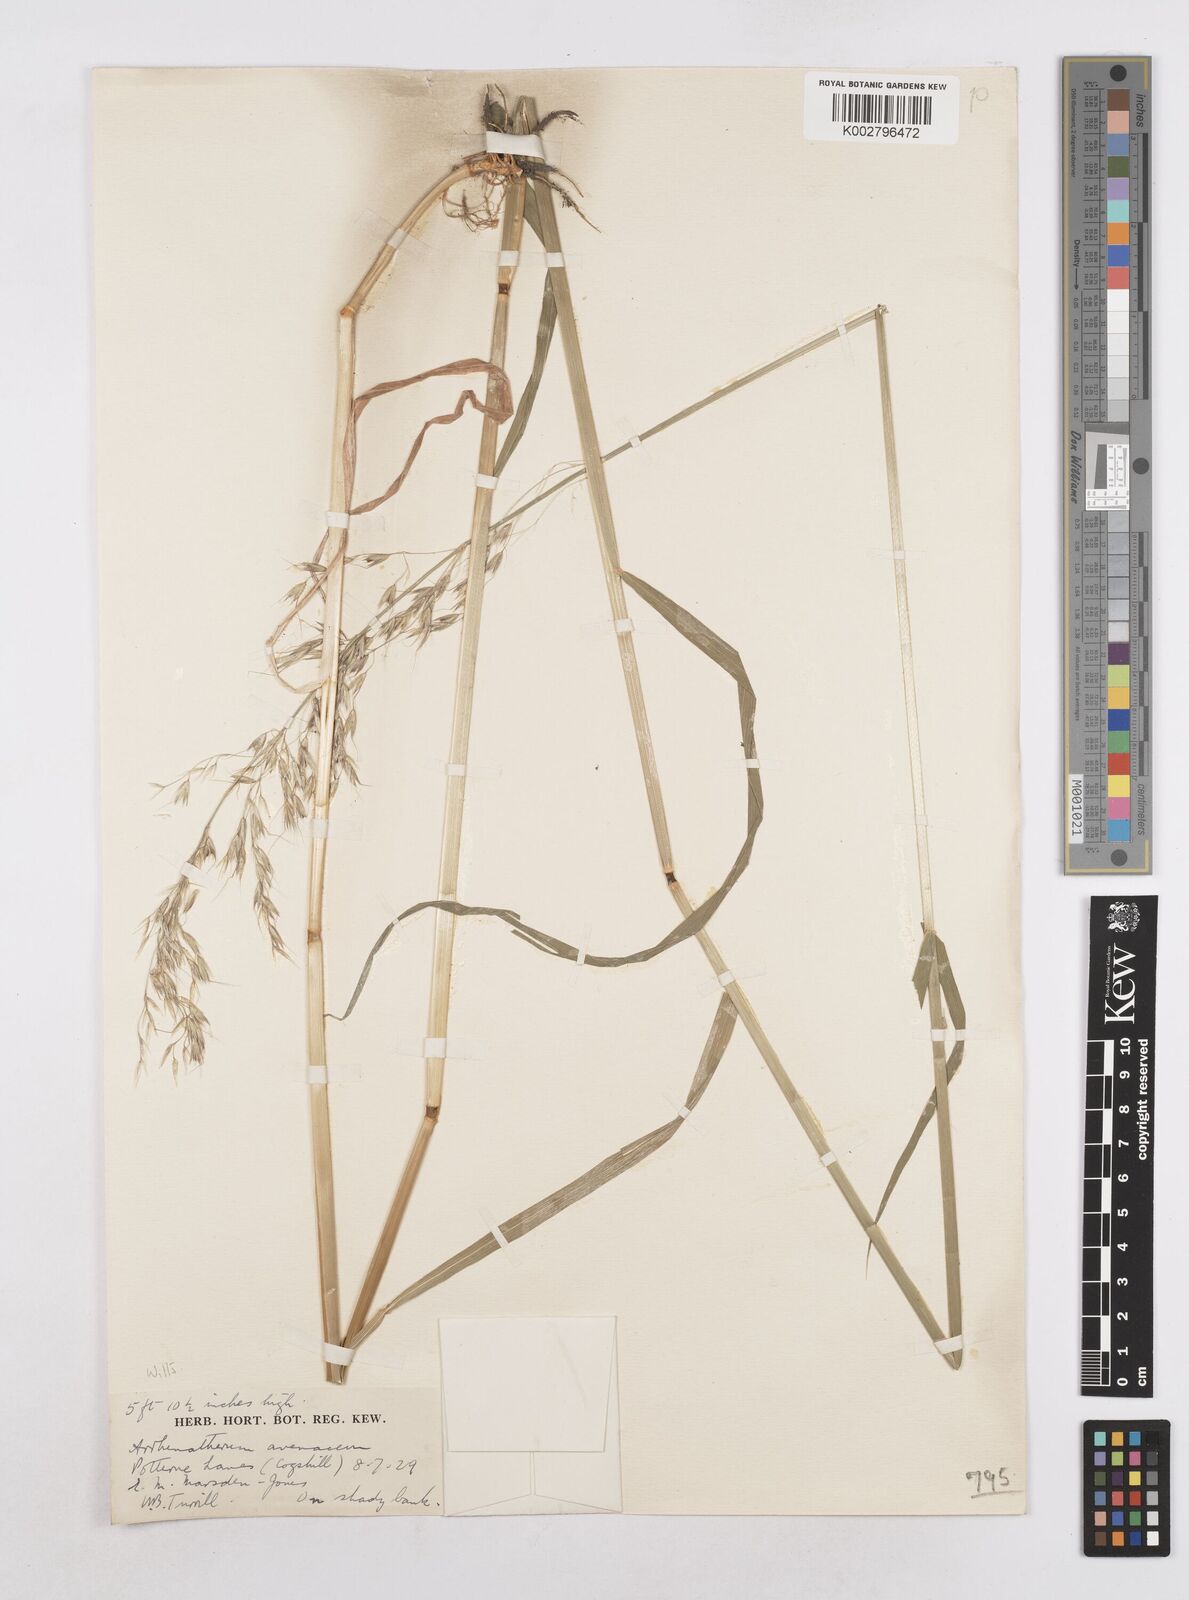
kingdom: Plantae
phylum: Tracheophyta
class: Liliopsida
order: Poales
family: Poaceae
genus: Arrhenatherum
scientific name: Arrhenatherum elatius
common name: Tall oatgrass
